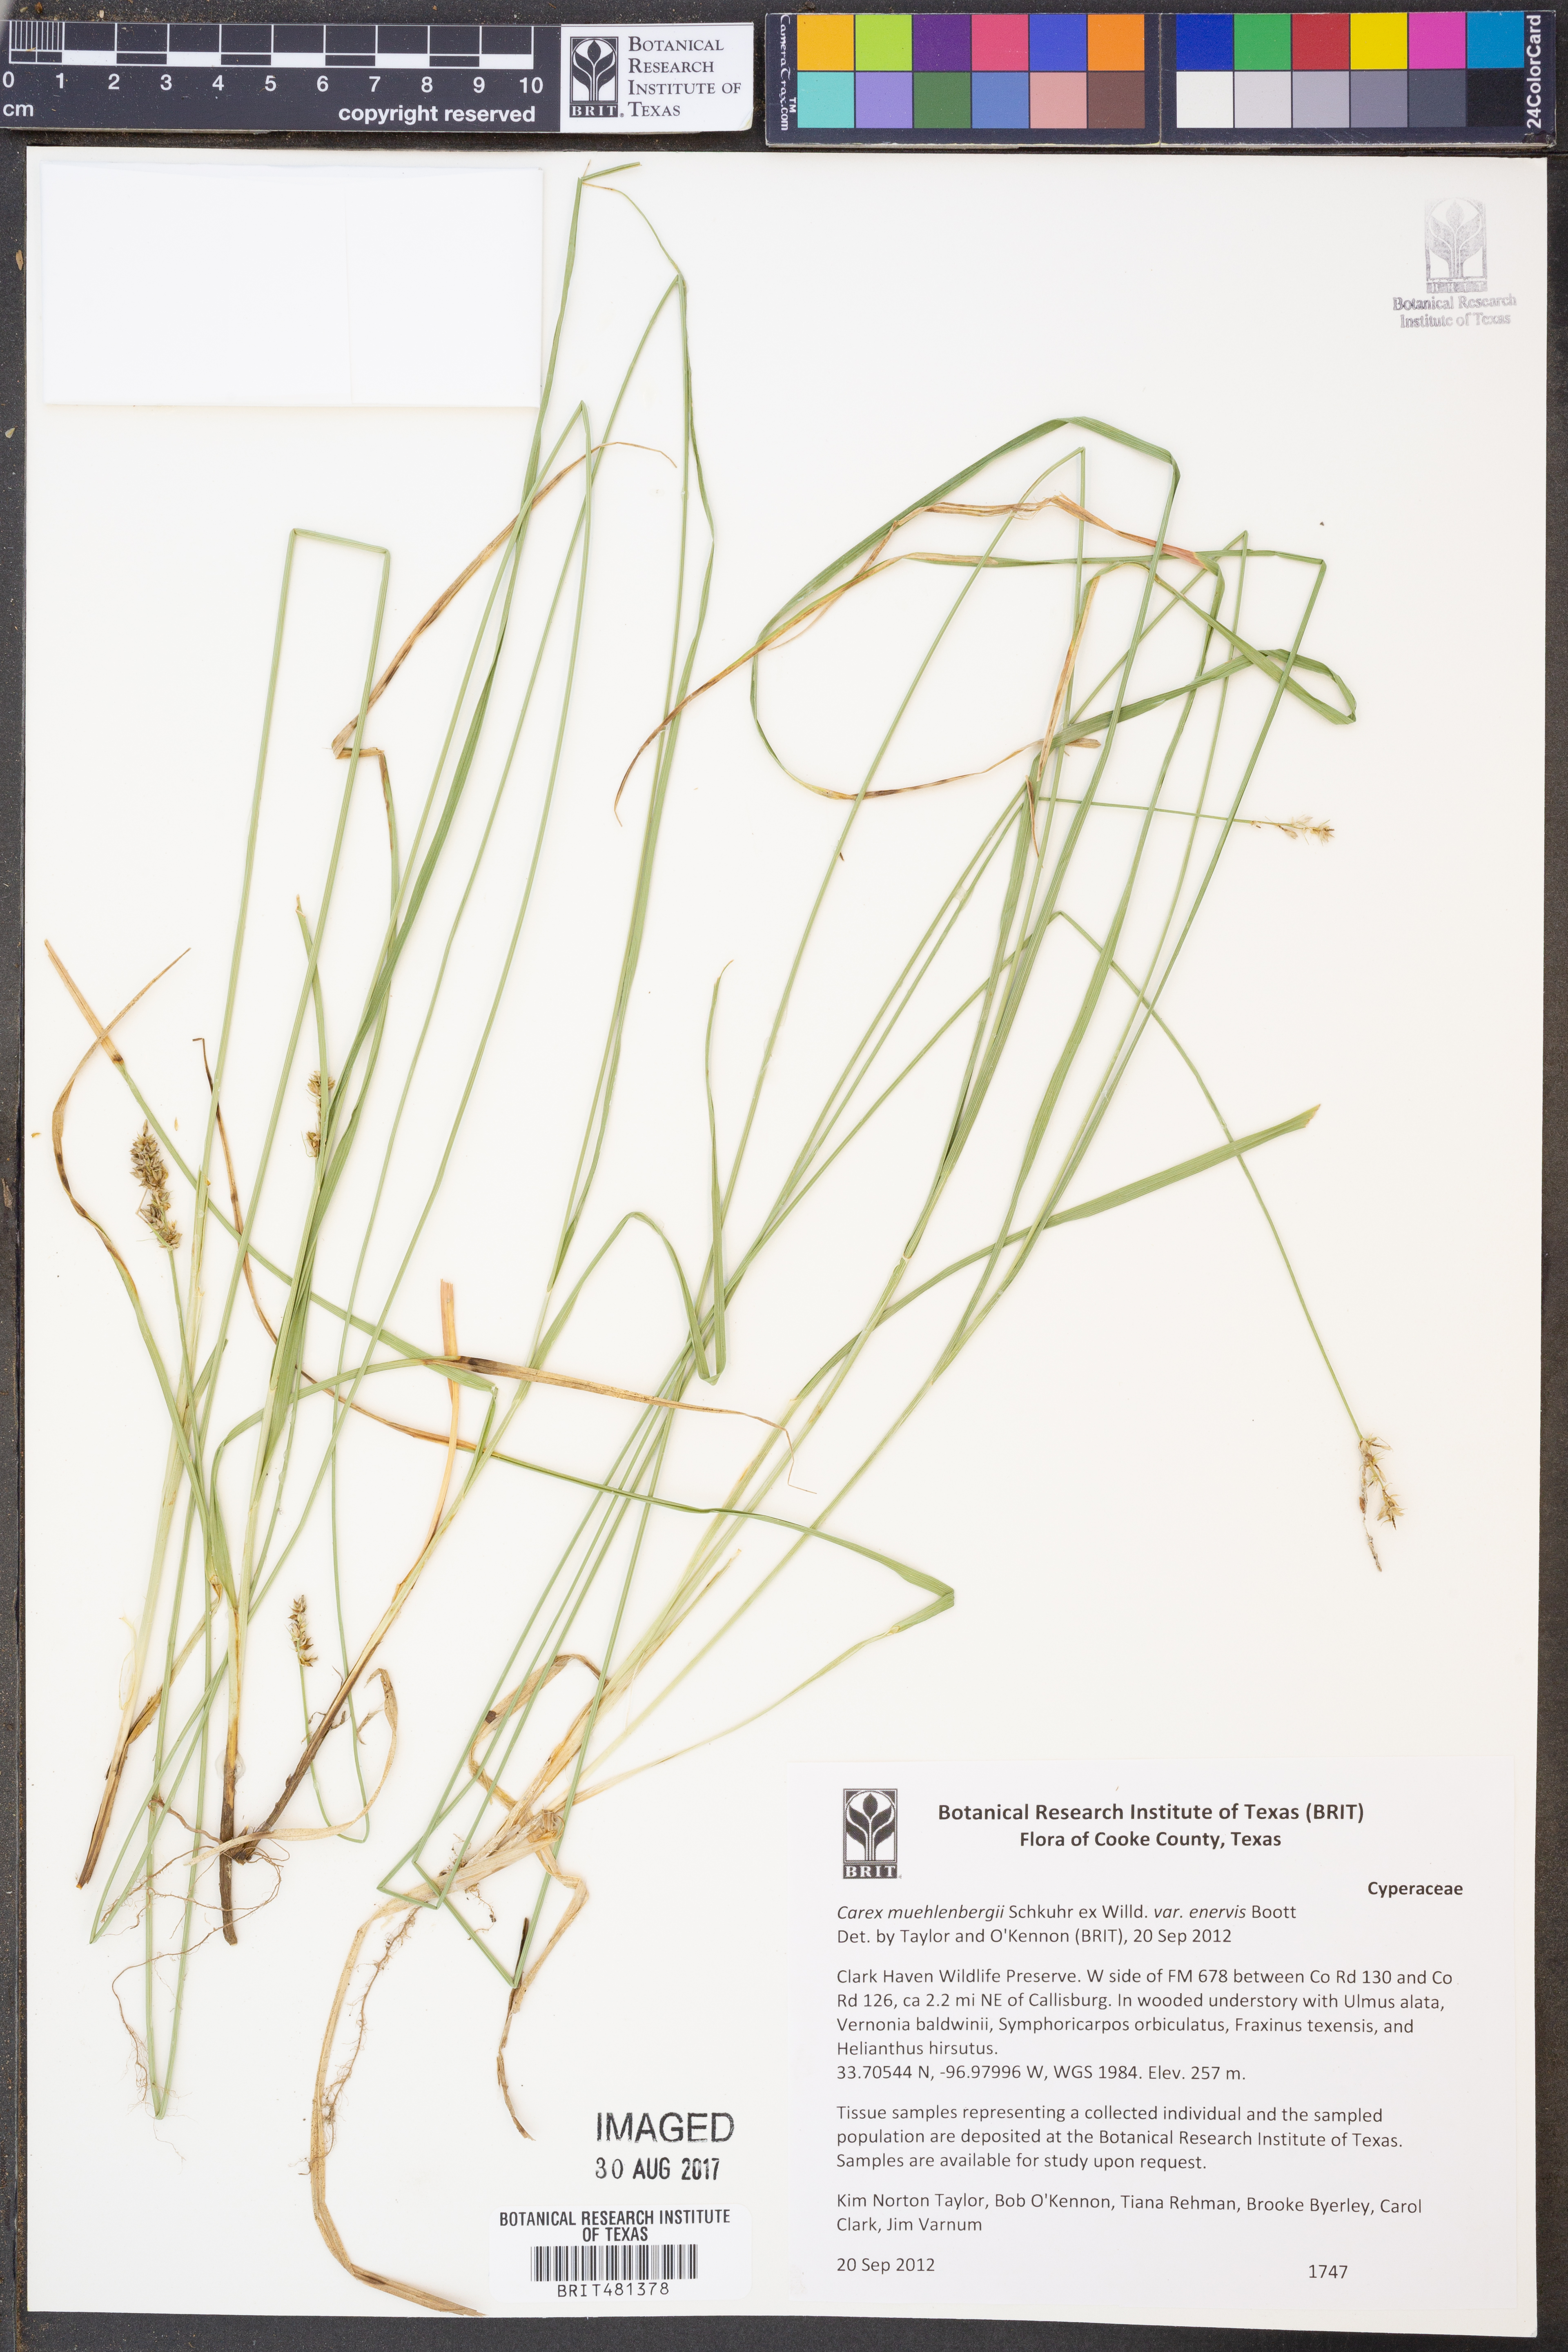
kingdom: Plantae
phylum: Tracheophyta
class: Liliopsida
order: Poales
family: Cyperaceae
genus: Carex
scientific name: Carex muehlenbergii
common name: Muhlenberg's bracted sedge
